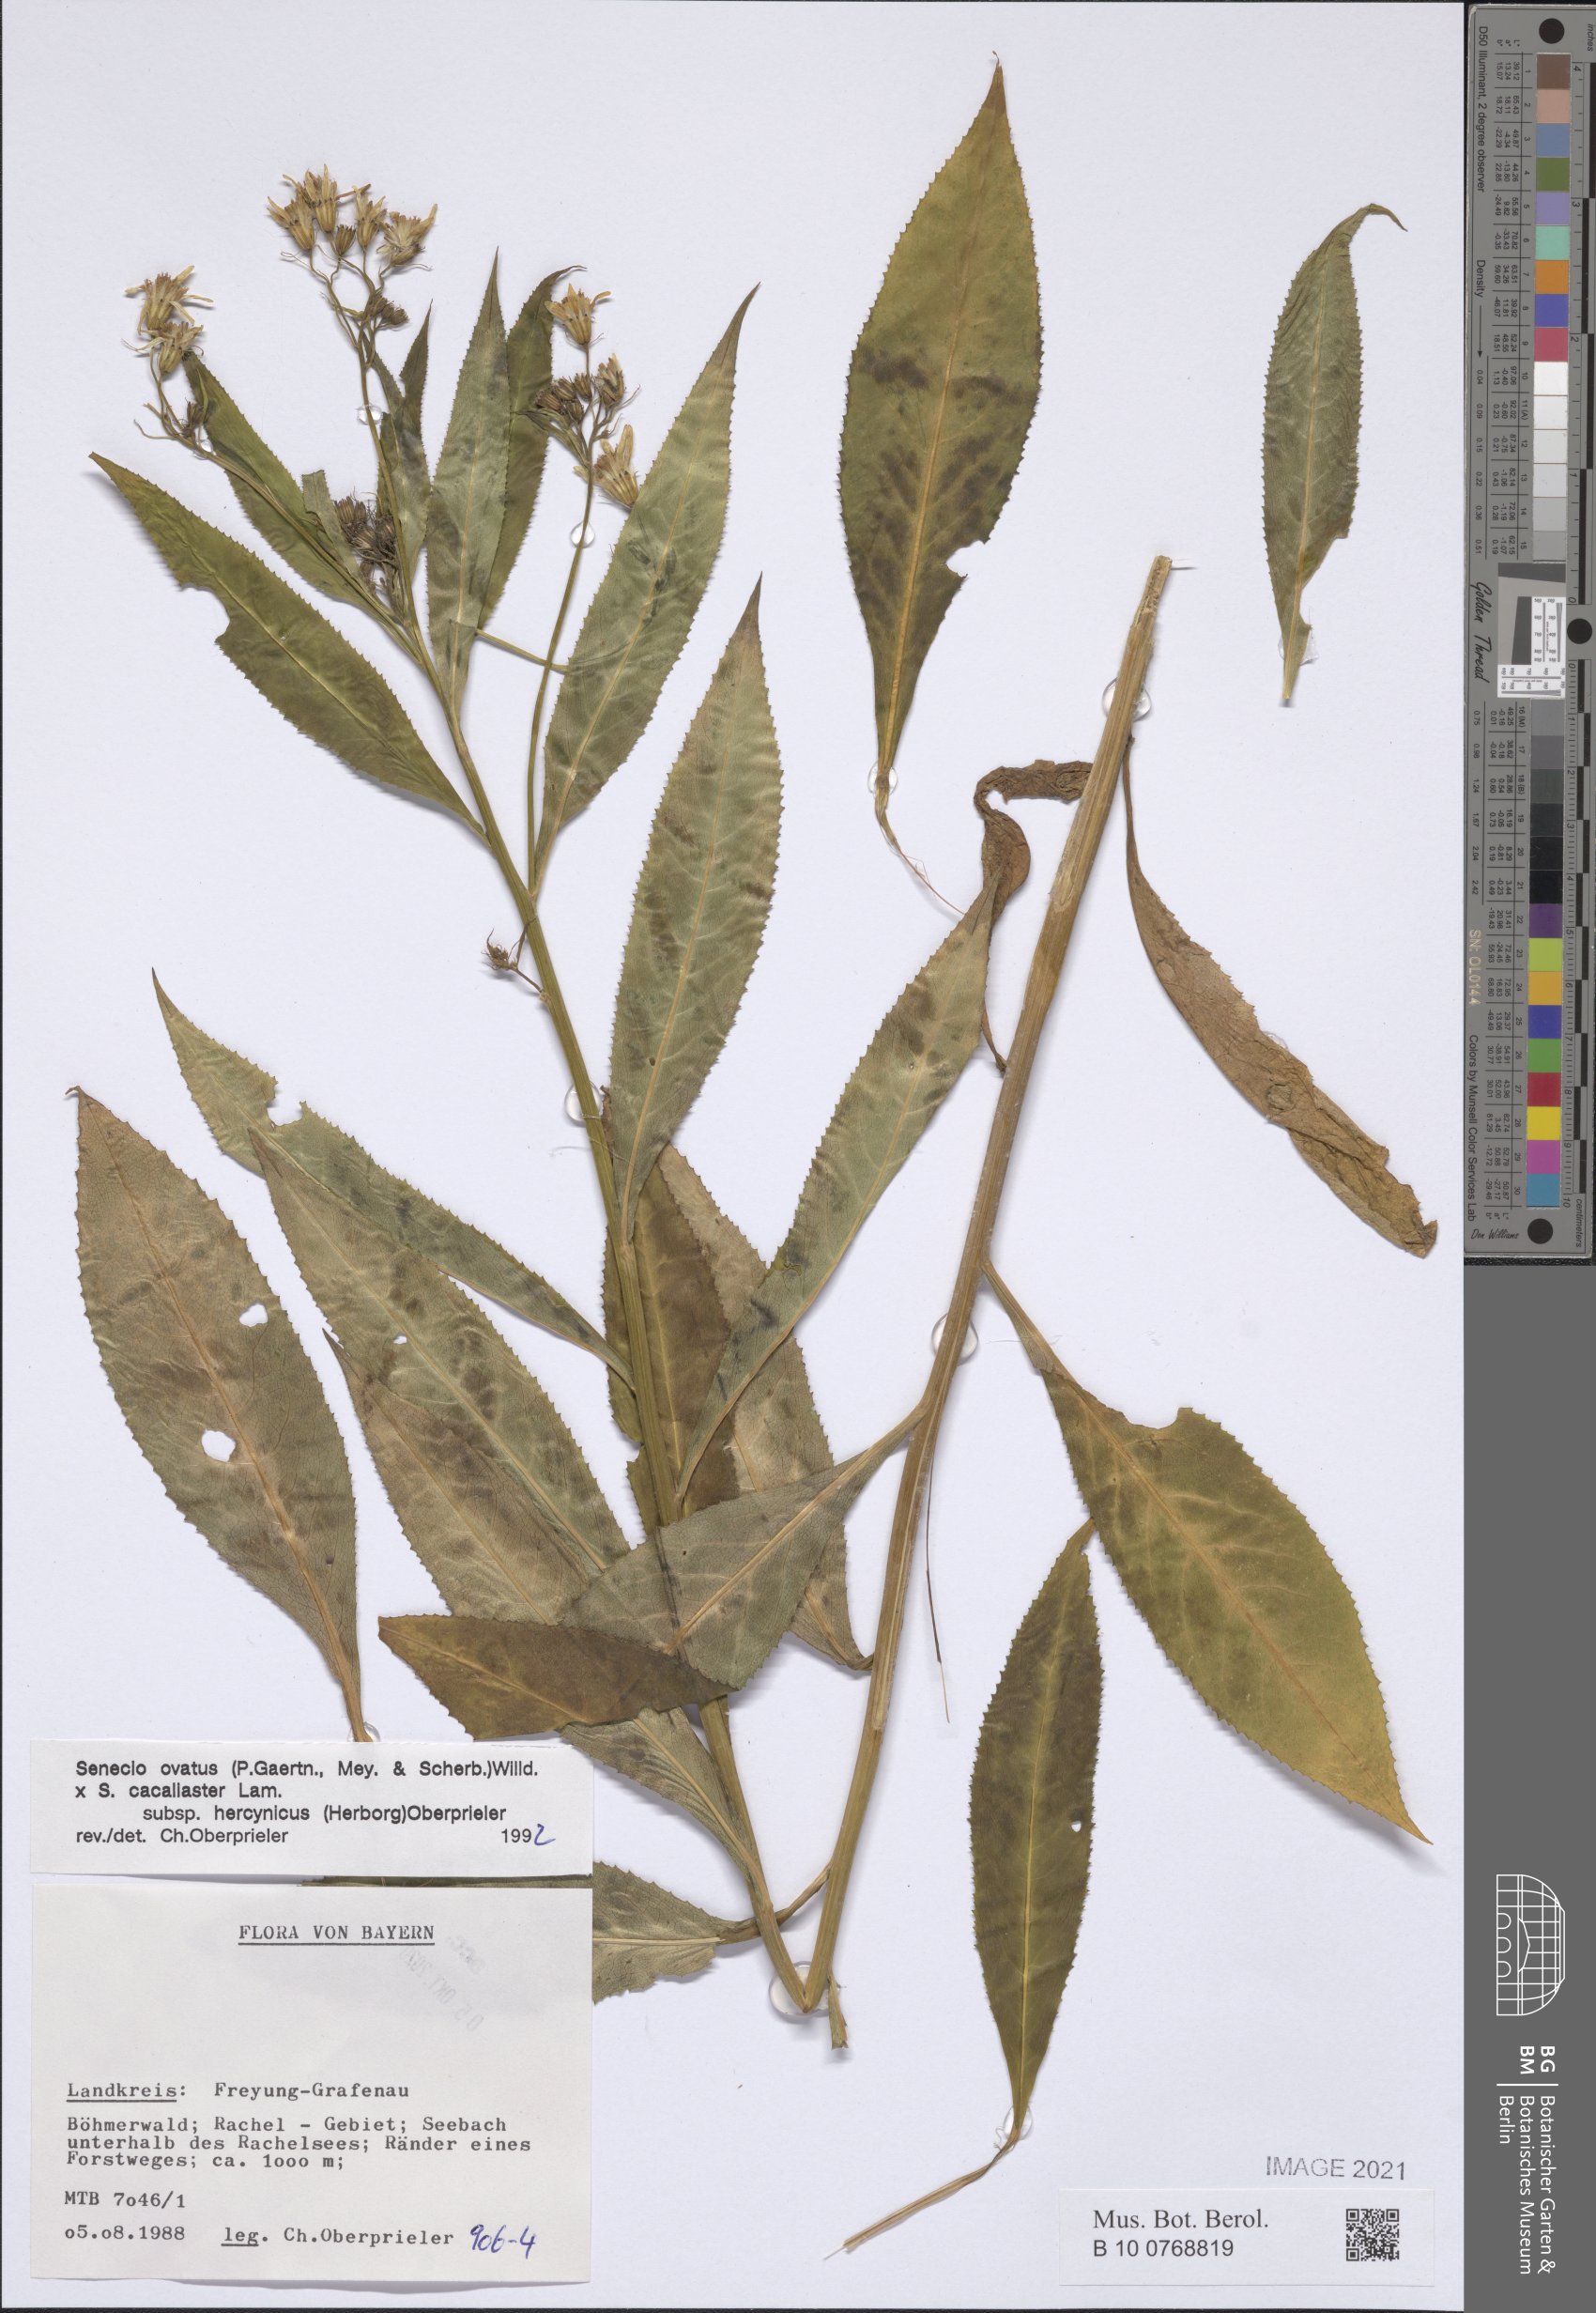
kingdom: Plantae
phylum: Tracheophyta
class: Magnoliopsida
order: Asterales
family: Asteraceae
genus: Senecio
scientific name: Senecio ovatus
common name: Wood ragwort
